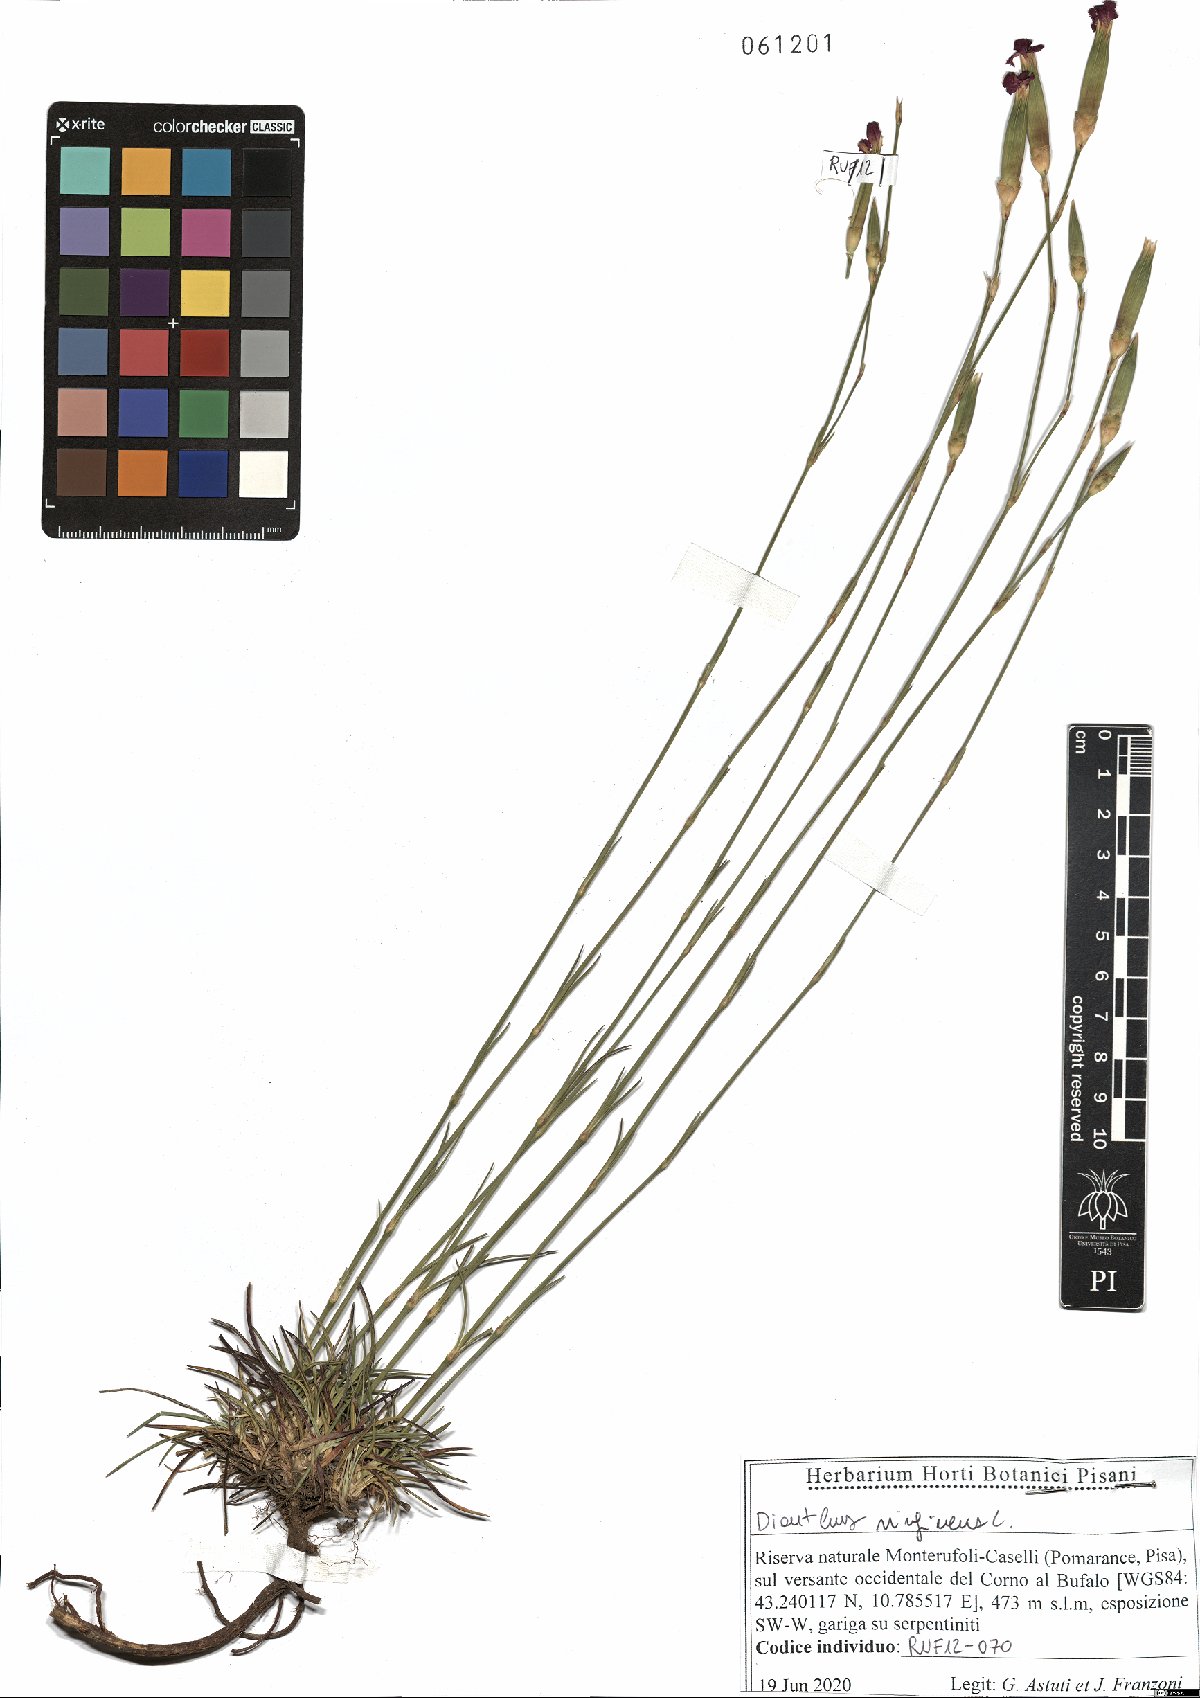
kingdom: Plantae
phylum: Tracheophyta
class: Magnoliopsida
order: Caryophyllales
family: Caryophyllaceae
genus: Dianthus
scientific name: Dianthus virgineus
